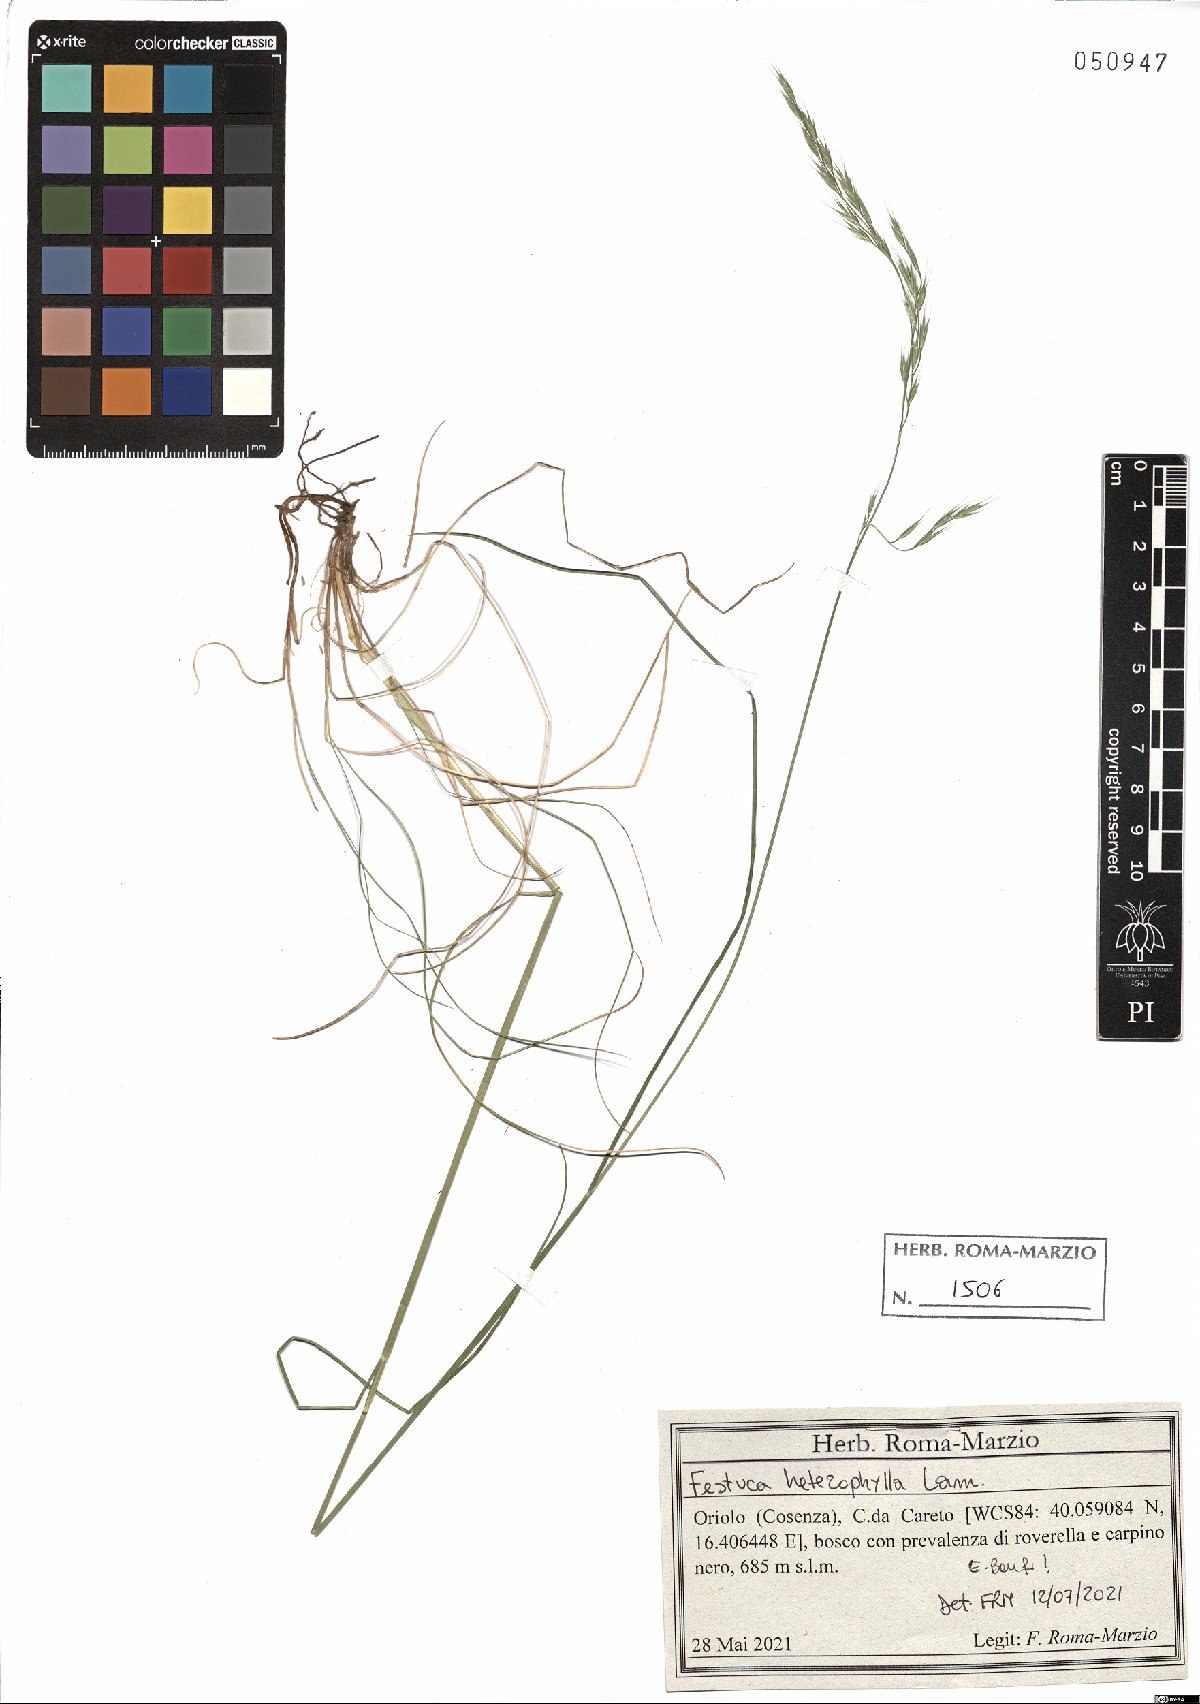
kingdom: Plantae
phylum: Tracheophyta
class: Liliopsida
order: Poales
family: Poaceae
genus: Festuca
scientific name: Festuca heterophylla
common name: Various-leaved fescue
